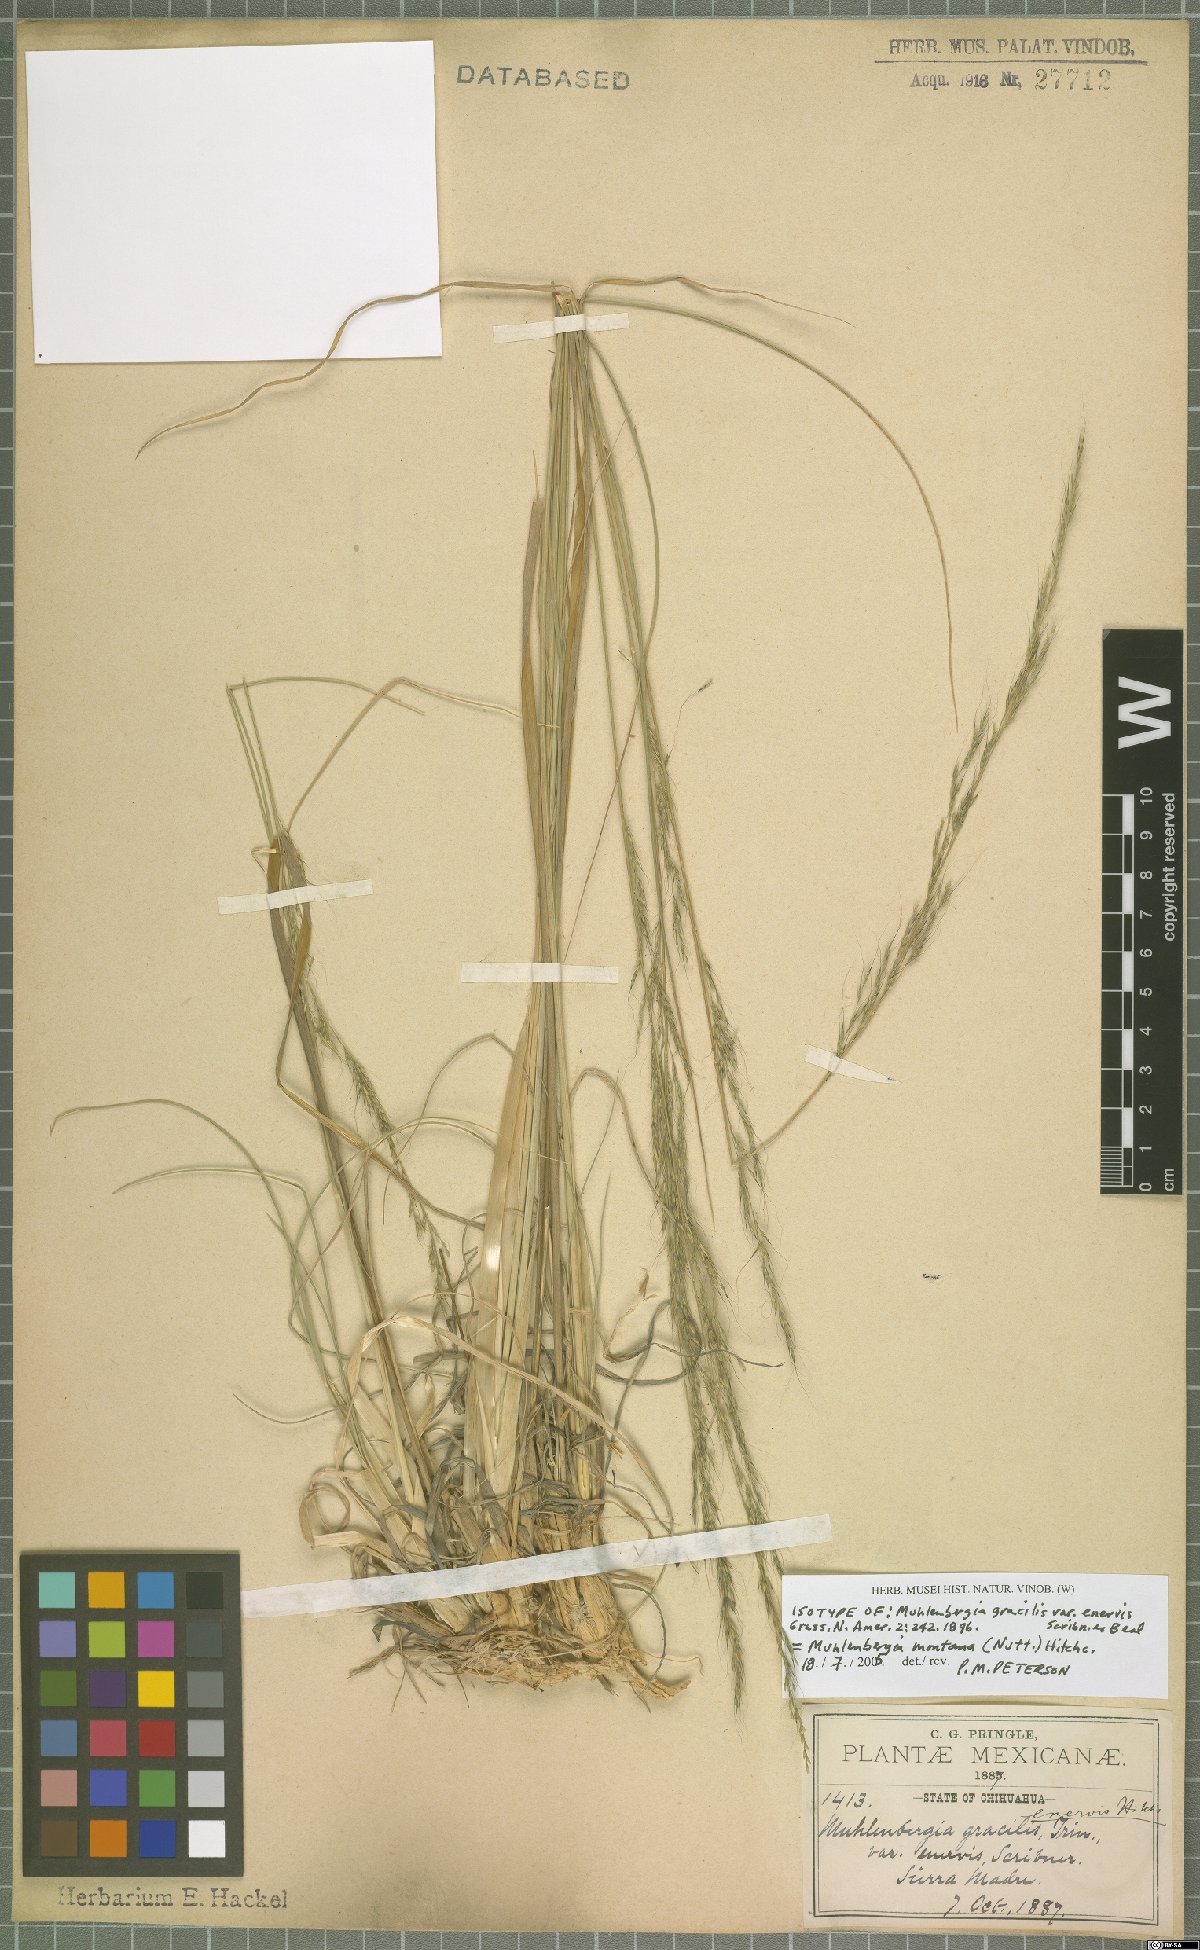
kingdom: Plantae
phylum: Tracheophyta
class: Liliopsida
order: Poales
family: Poaceae
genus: Muhlenbergia
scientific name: Muhlenbergia montana
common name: Mountain muhly
